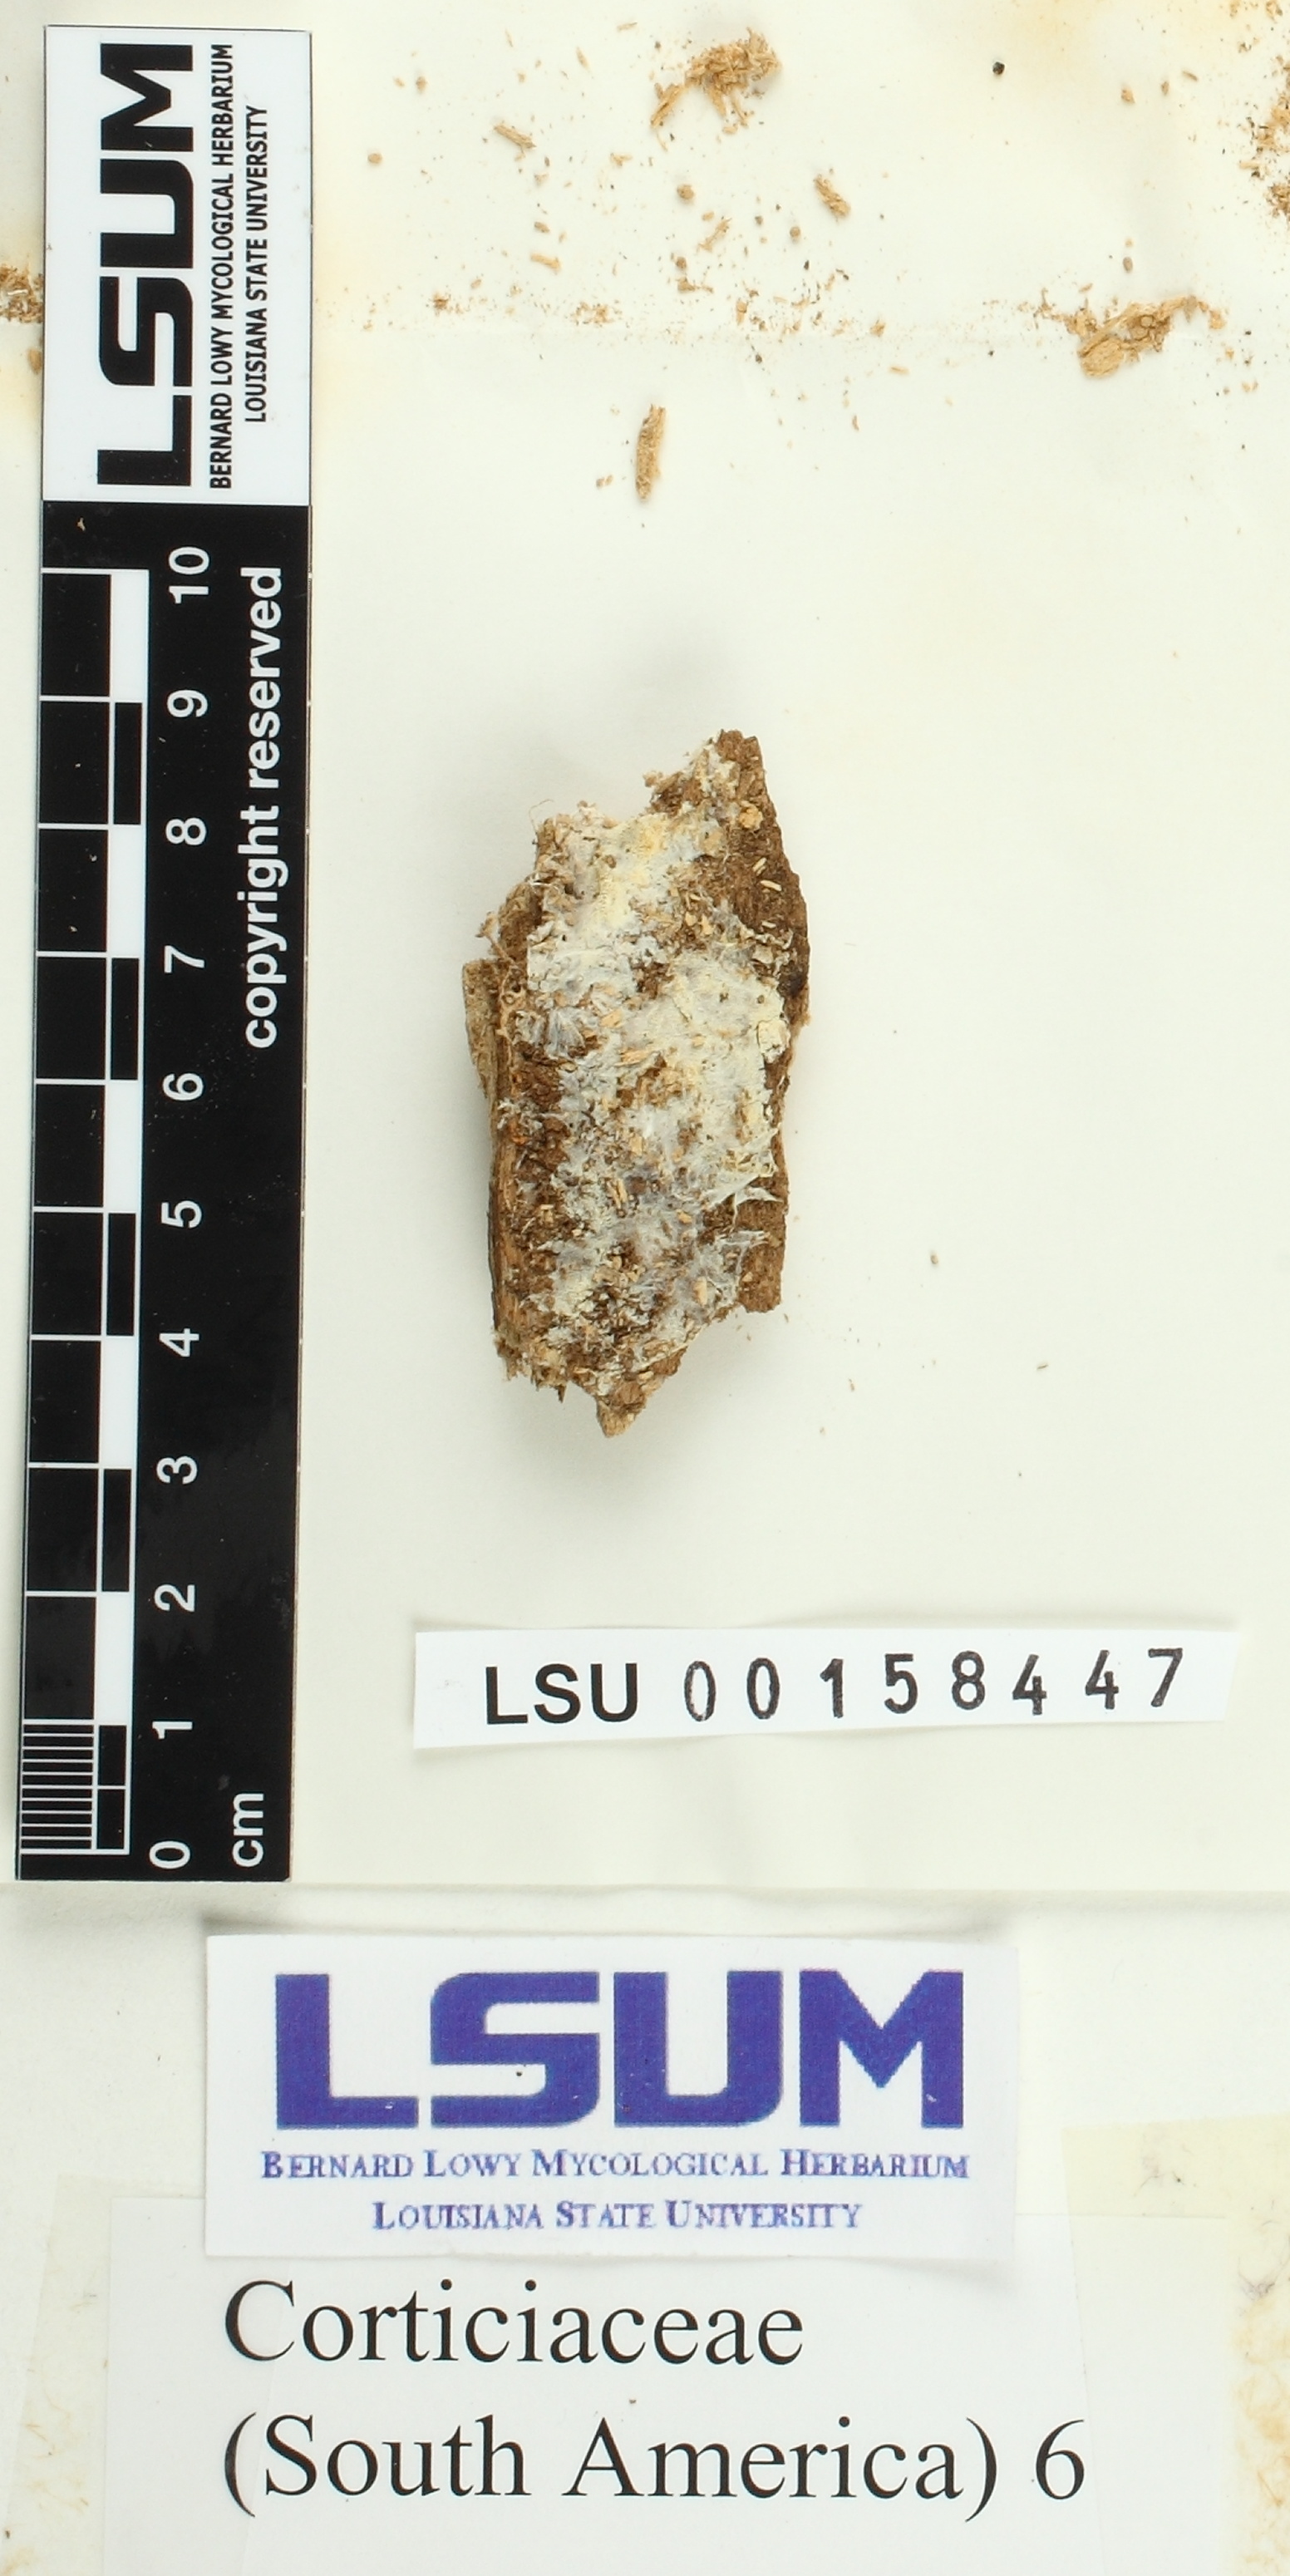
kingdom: Fungi
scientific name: Fungi
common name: Fungi
